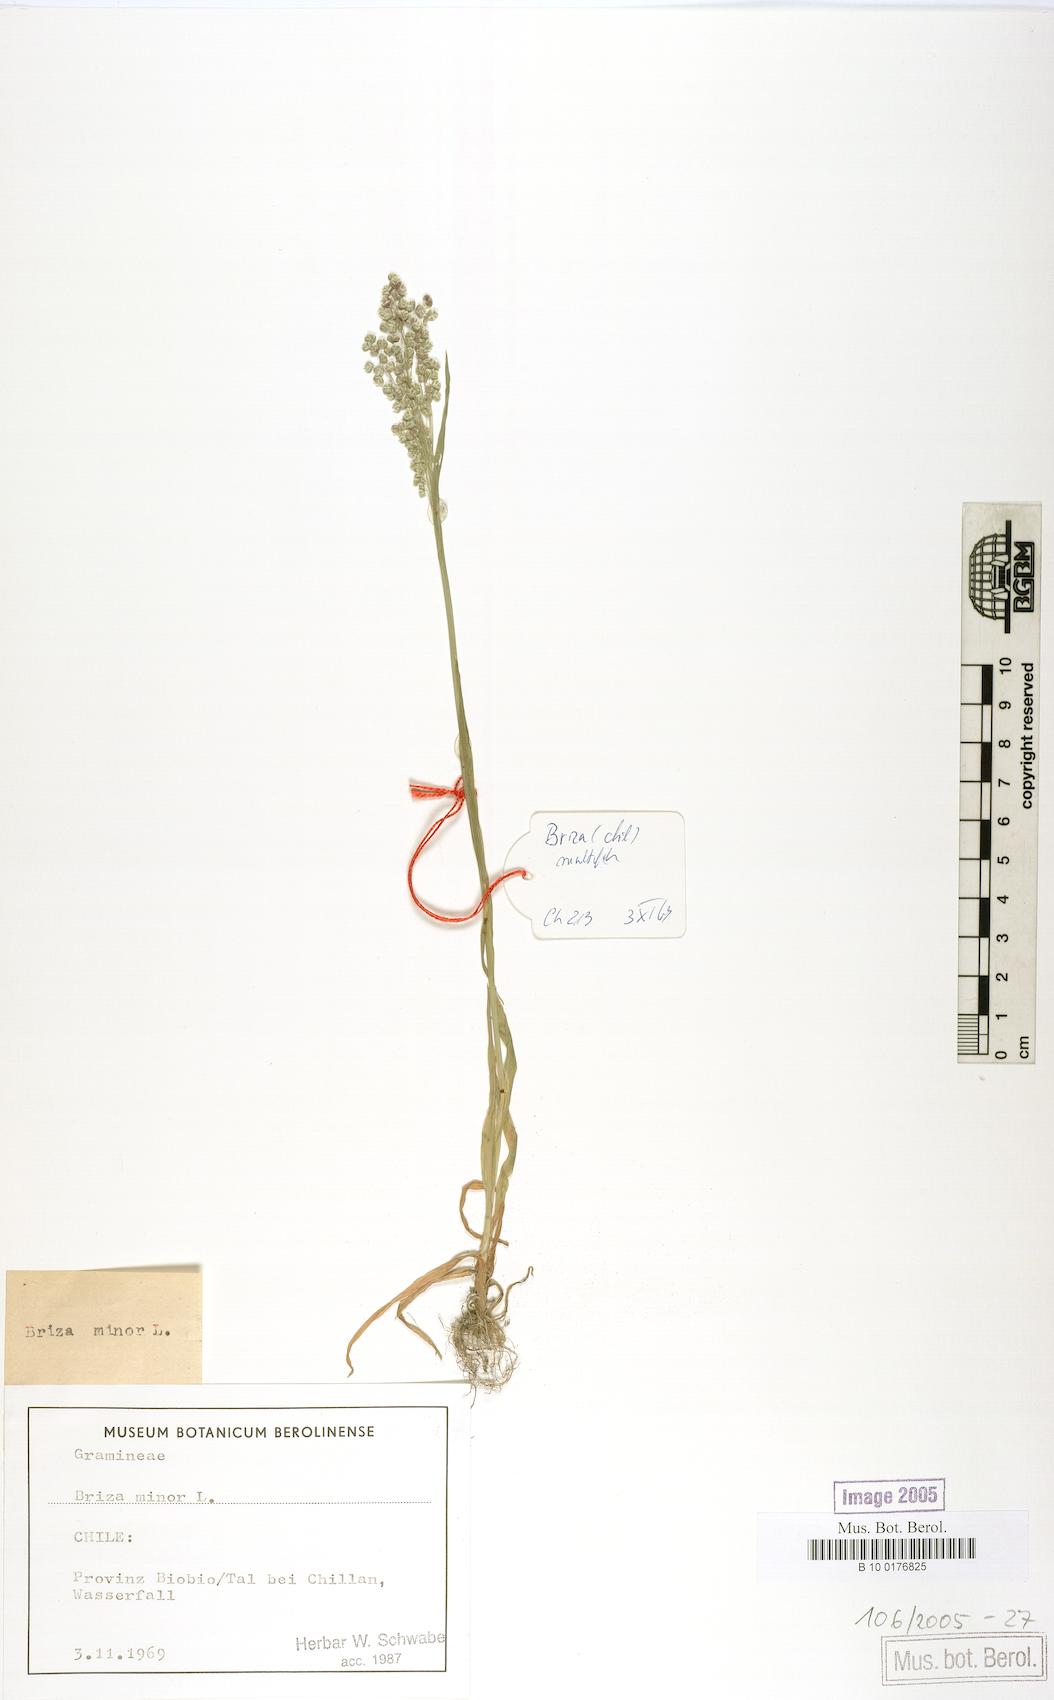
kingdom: Plantae
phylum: Tracheophyta
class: Liliopsida
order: Poales
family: Poaceae
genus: Briza
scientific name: Briza minor
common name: Lesser quaking-grass
